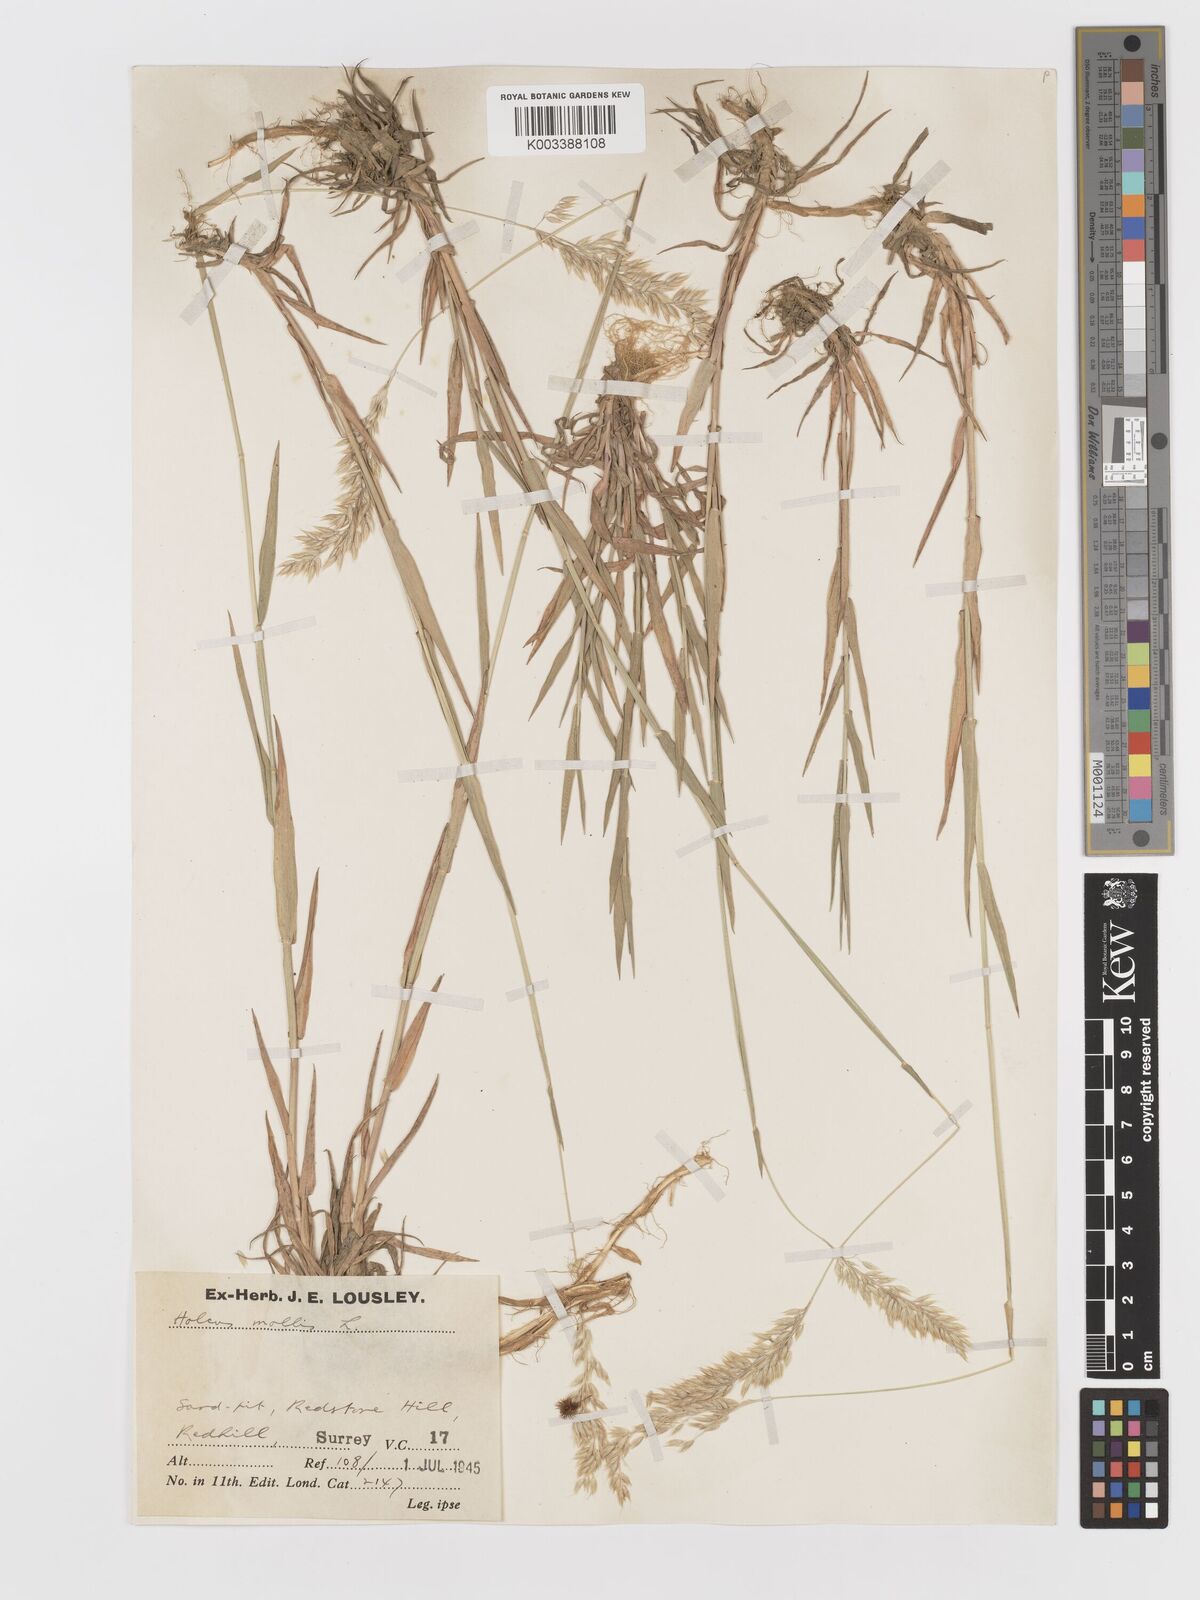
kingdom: Plantae
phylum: Tracheophyta
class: Liliopsida
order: Poales
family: Poaceae
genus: Holcus
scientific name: Holcus mollis
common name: Creeping velvetgrass
